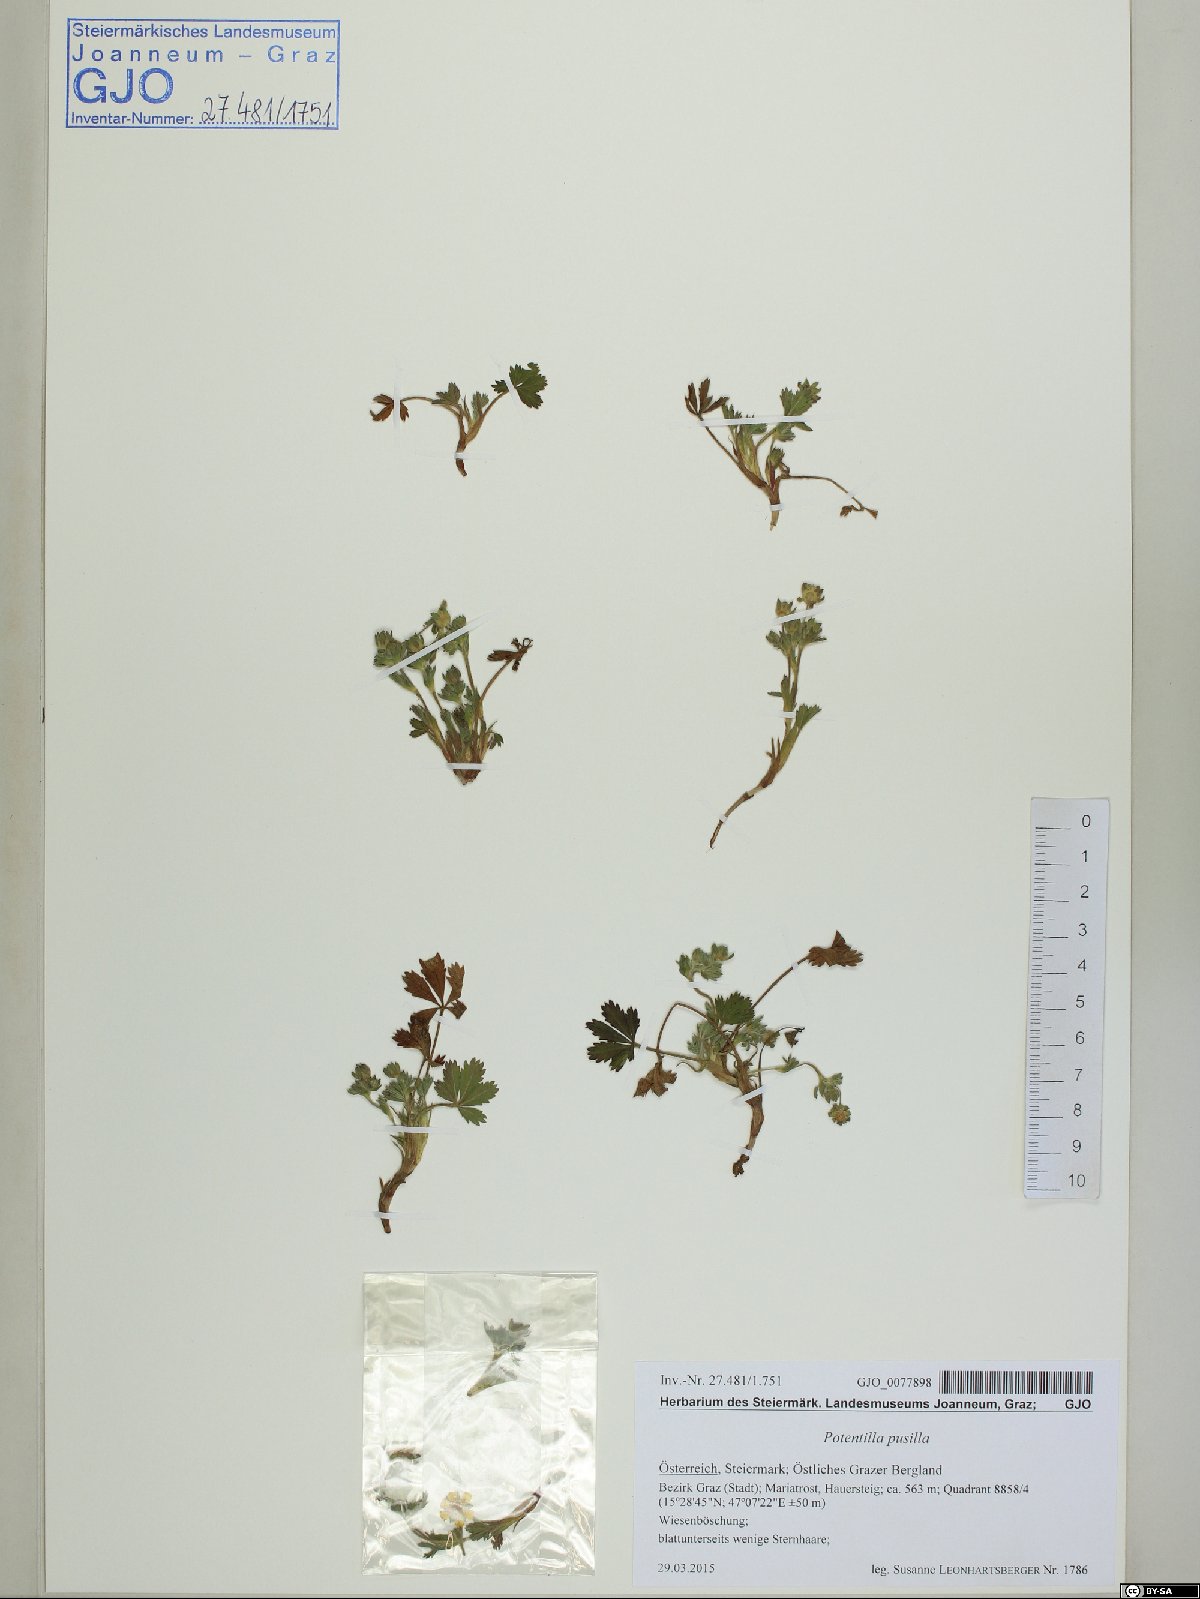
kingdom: Plantae
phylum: Tracheophyta
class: Magnoliopsida
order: Rosales
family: Rosaceae
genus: Potentilla
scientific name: Potentilla pusilla
